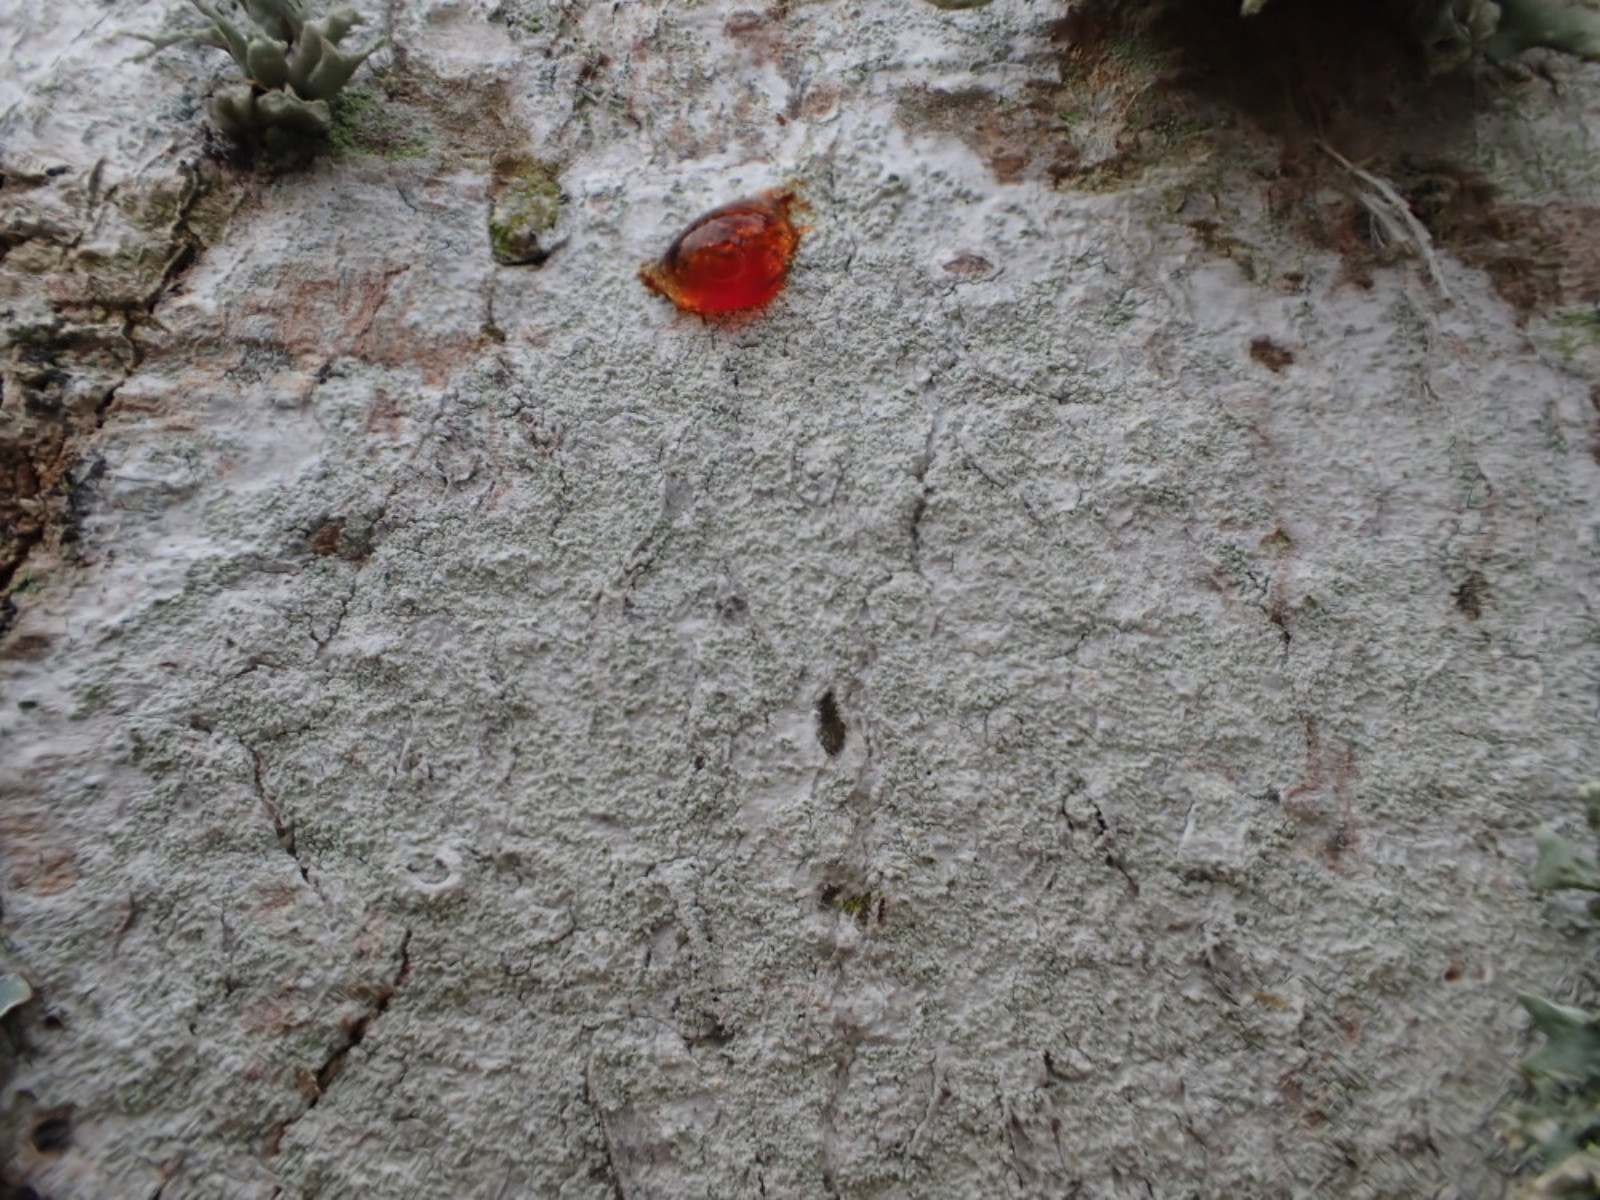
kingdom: Fungi
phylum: Ascomycota
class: Lecanoromycetes
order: Ostropales
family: Phlyctidaceae
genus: Phlyctis
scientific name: Phlyctis argena
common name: almindelig sølvlav
